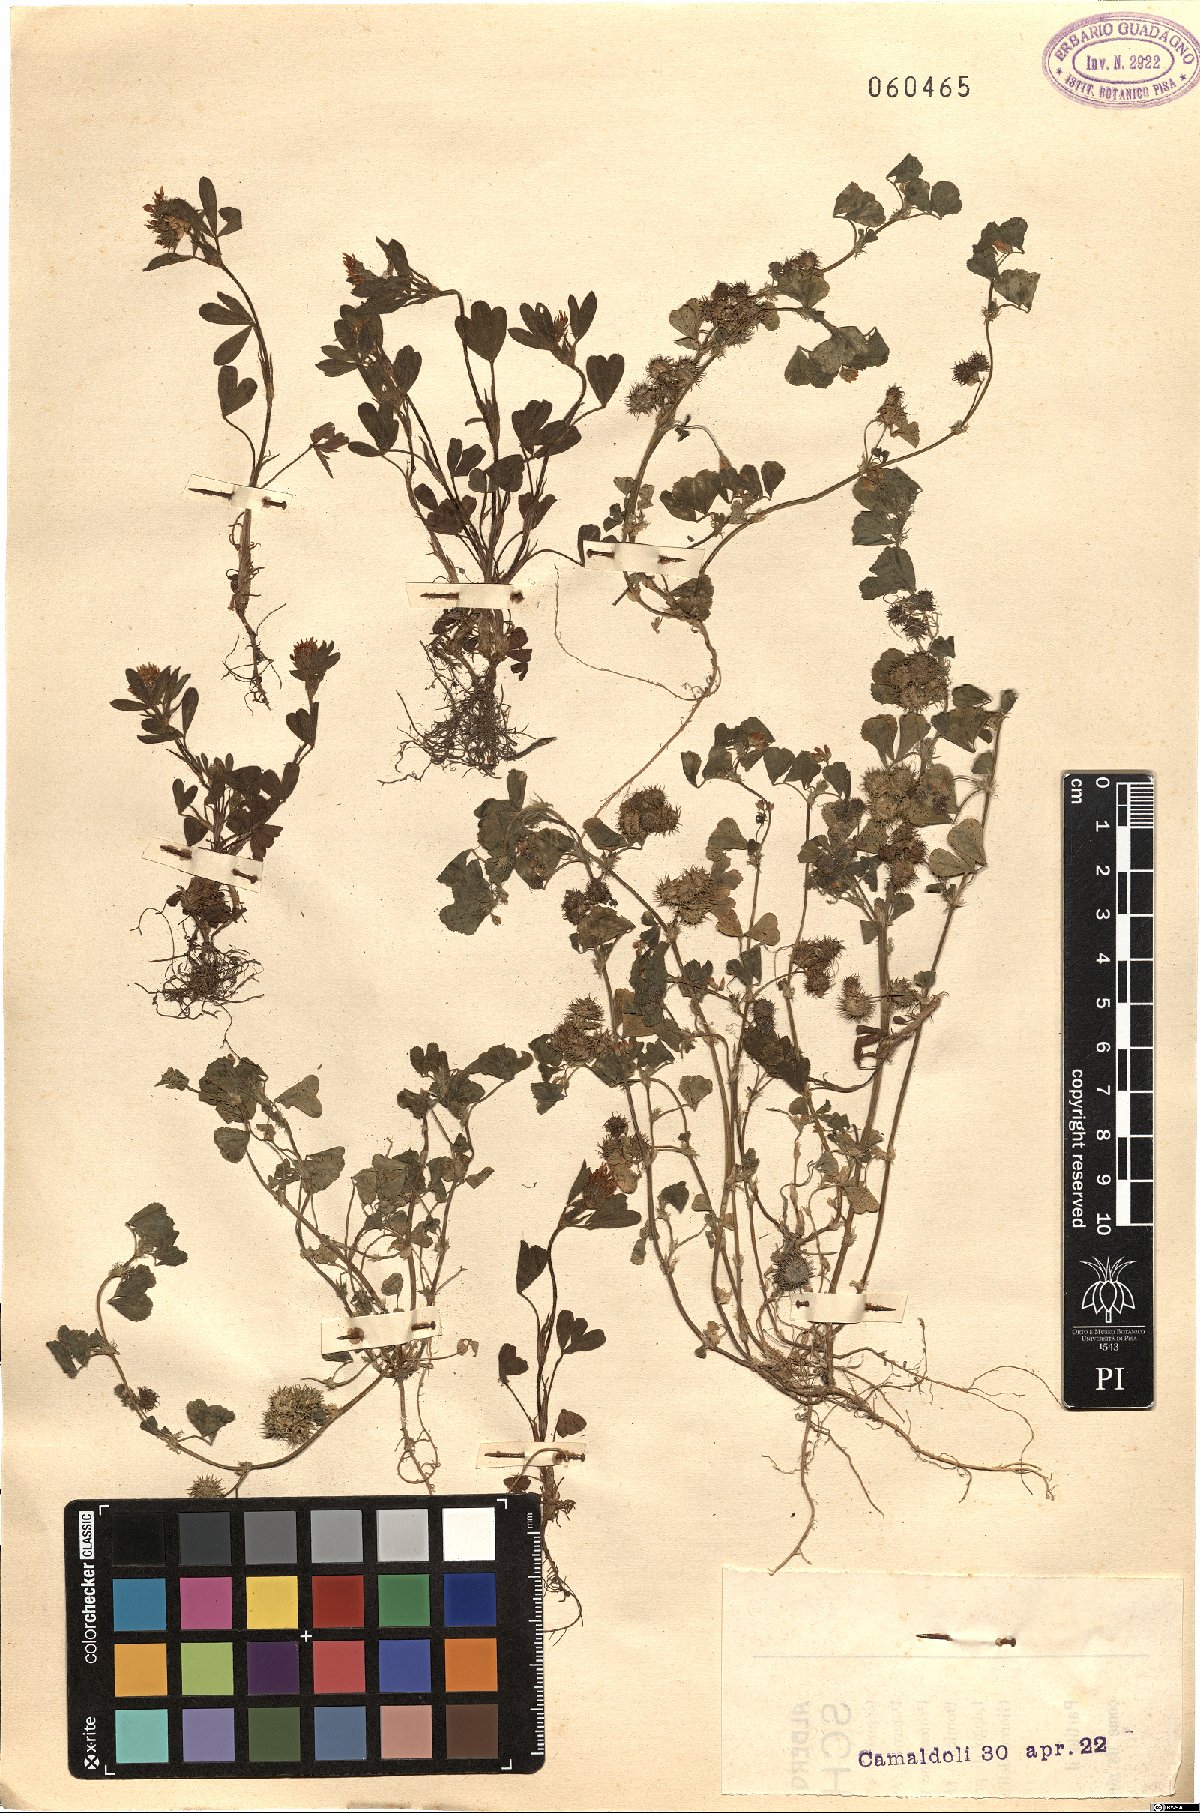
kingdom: Plantae
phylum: Tracheophyta
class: Magnoliopsida
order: Fabales
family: Fabaceae
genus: Medicago
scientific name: Medicago
